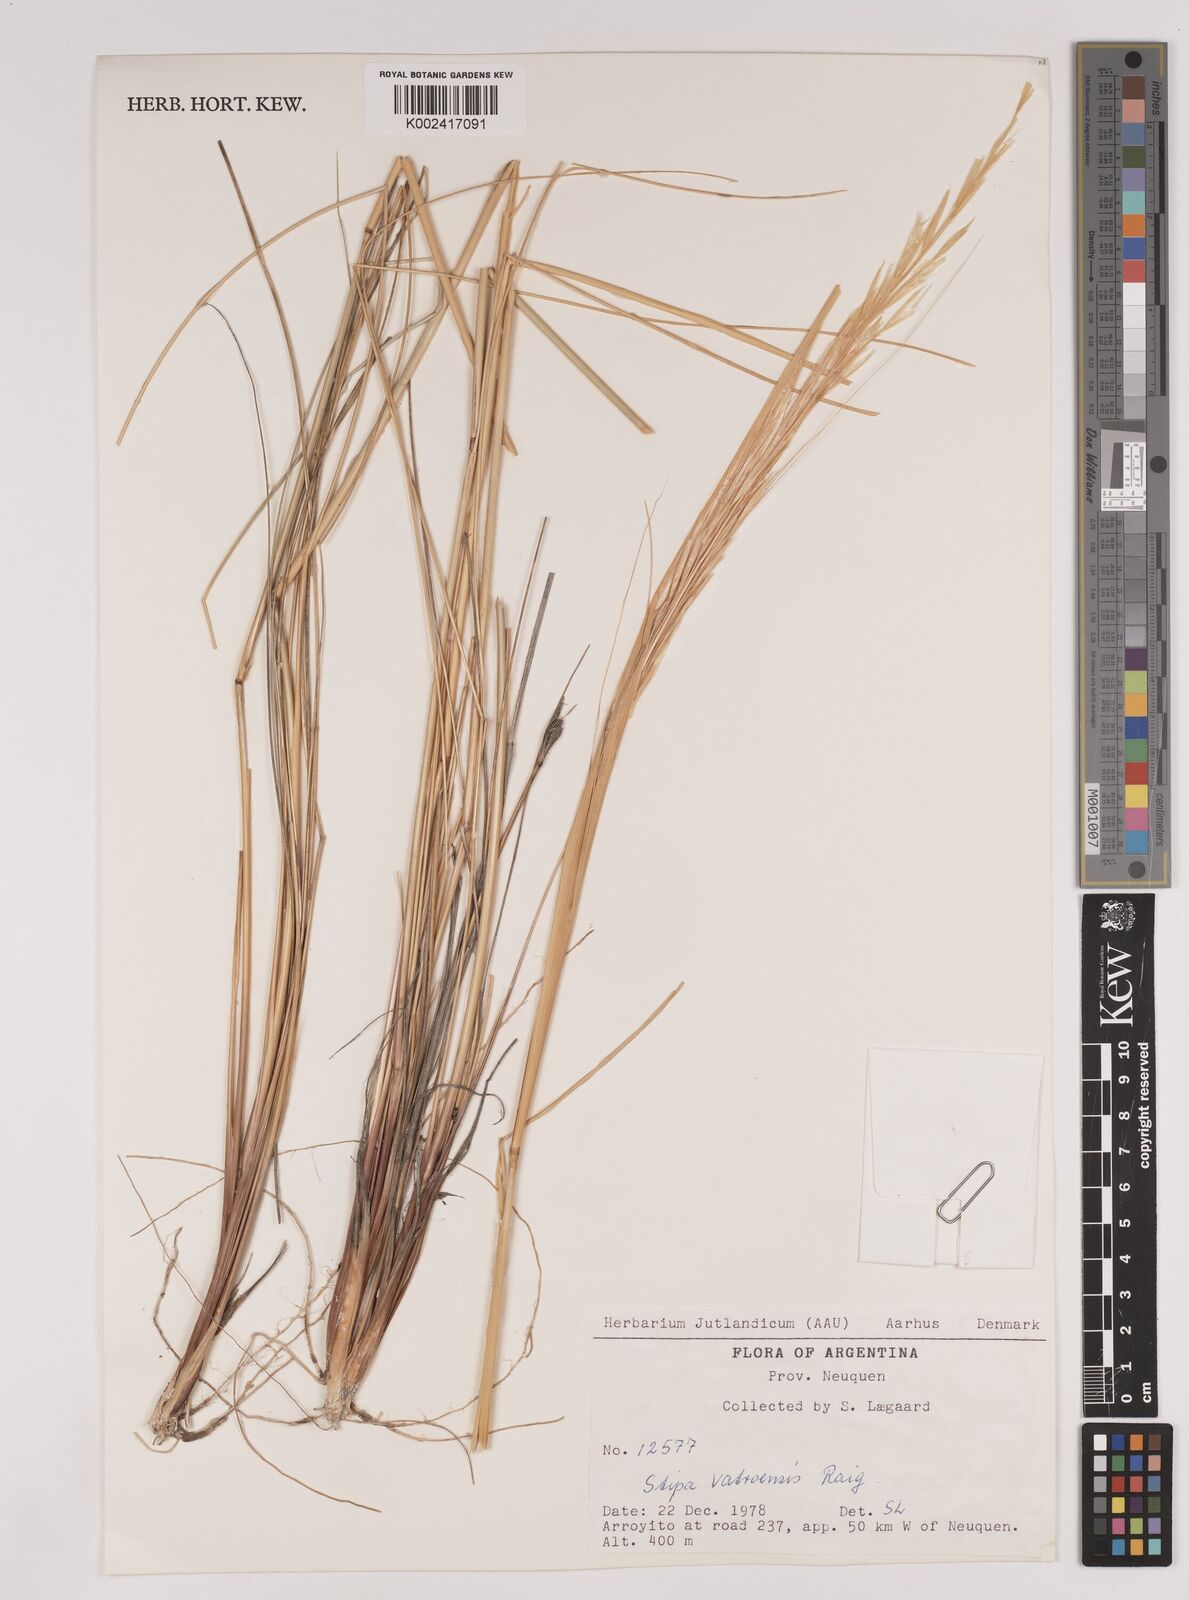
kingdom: Plantae
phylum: Tracheophyta
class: Liliopsida
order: Poales
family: Poaceae
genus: Pappostipa
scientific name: Pappostipa vatroensis
